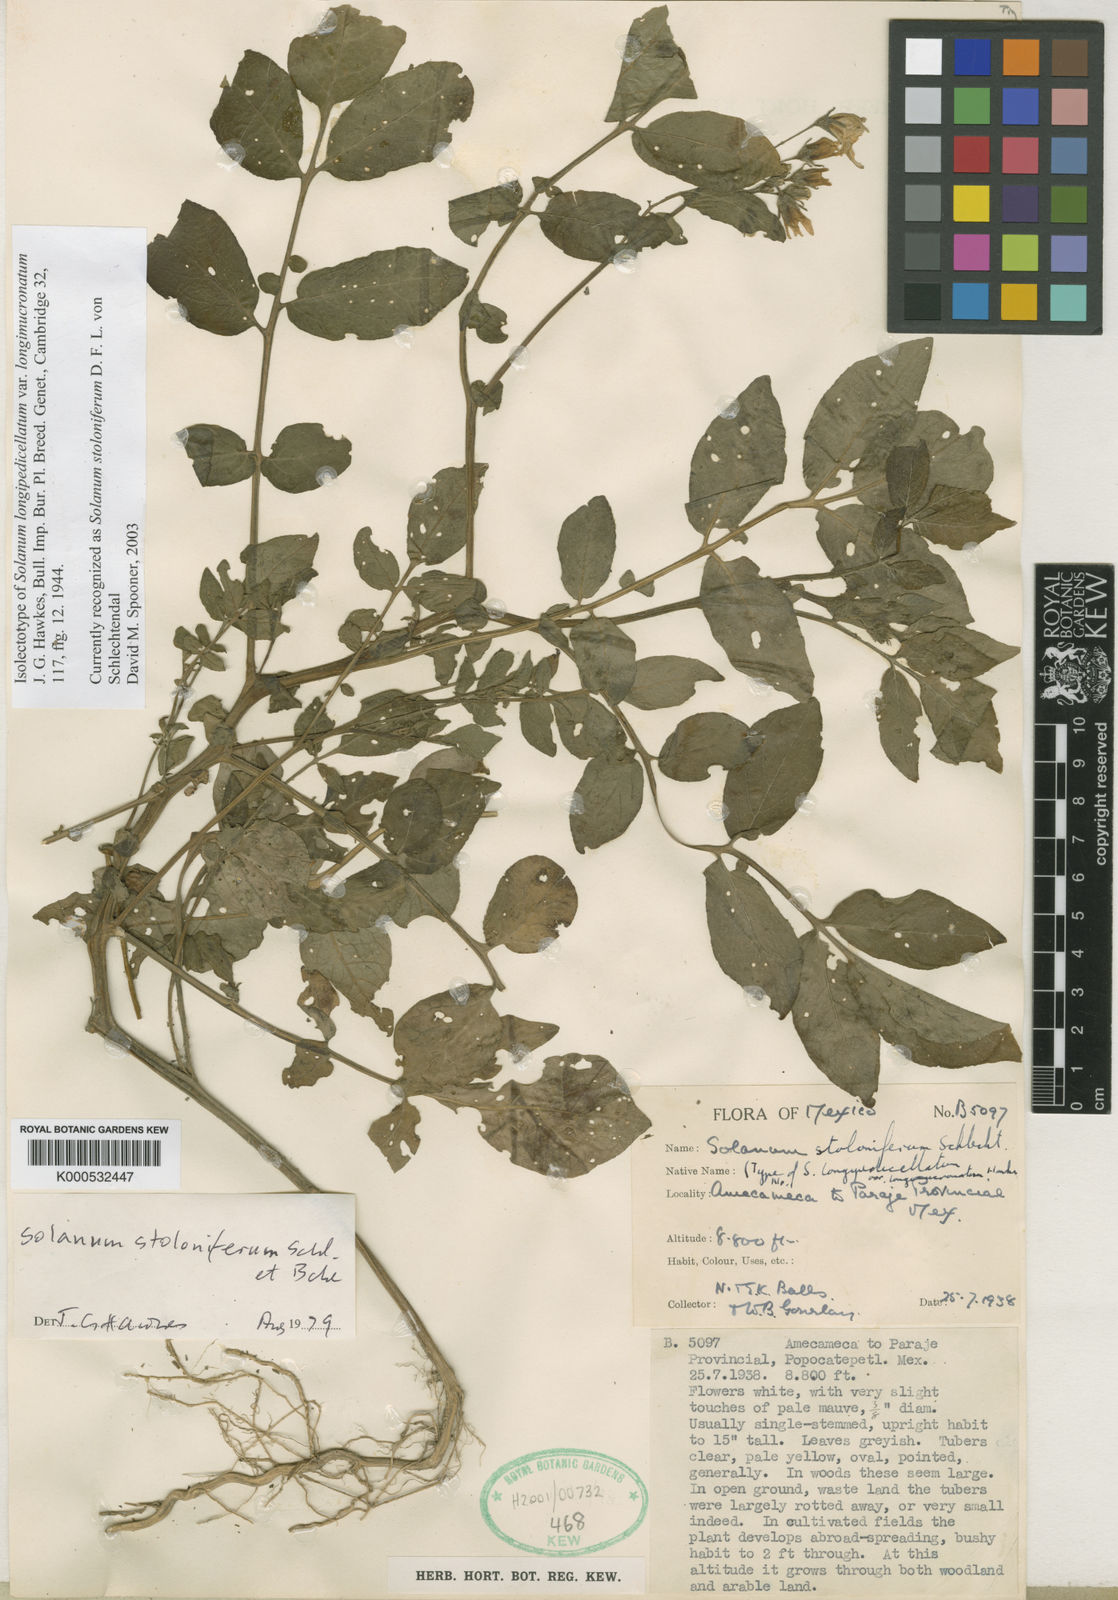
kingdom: Plantae
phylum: Tracheophyta
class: Magnoliopsida
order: Solanales
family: Solanaceae
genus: Solanum
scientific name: Solanum
